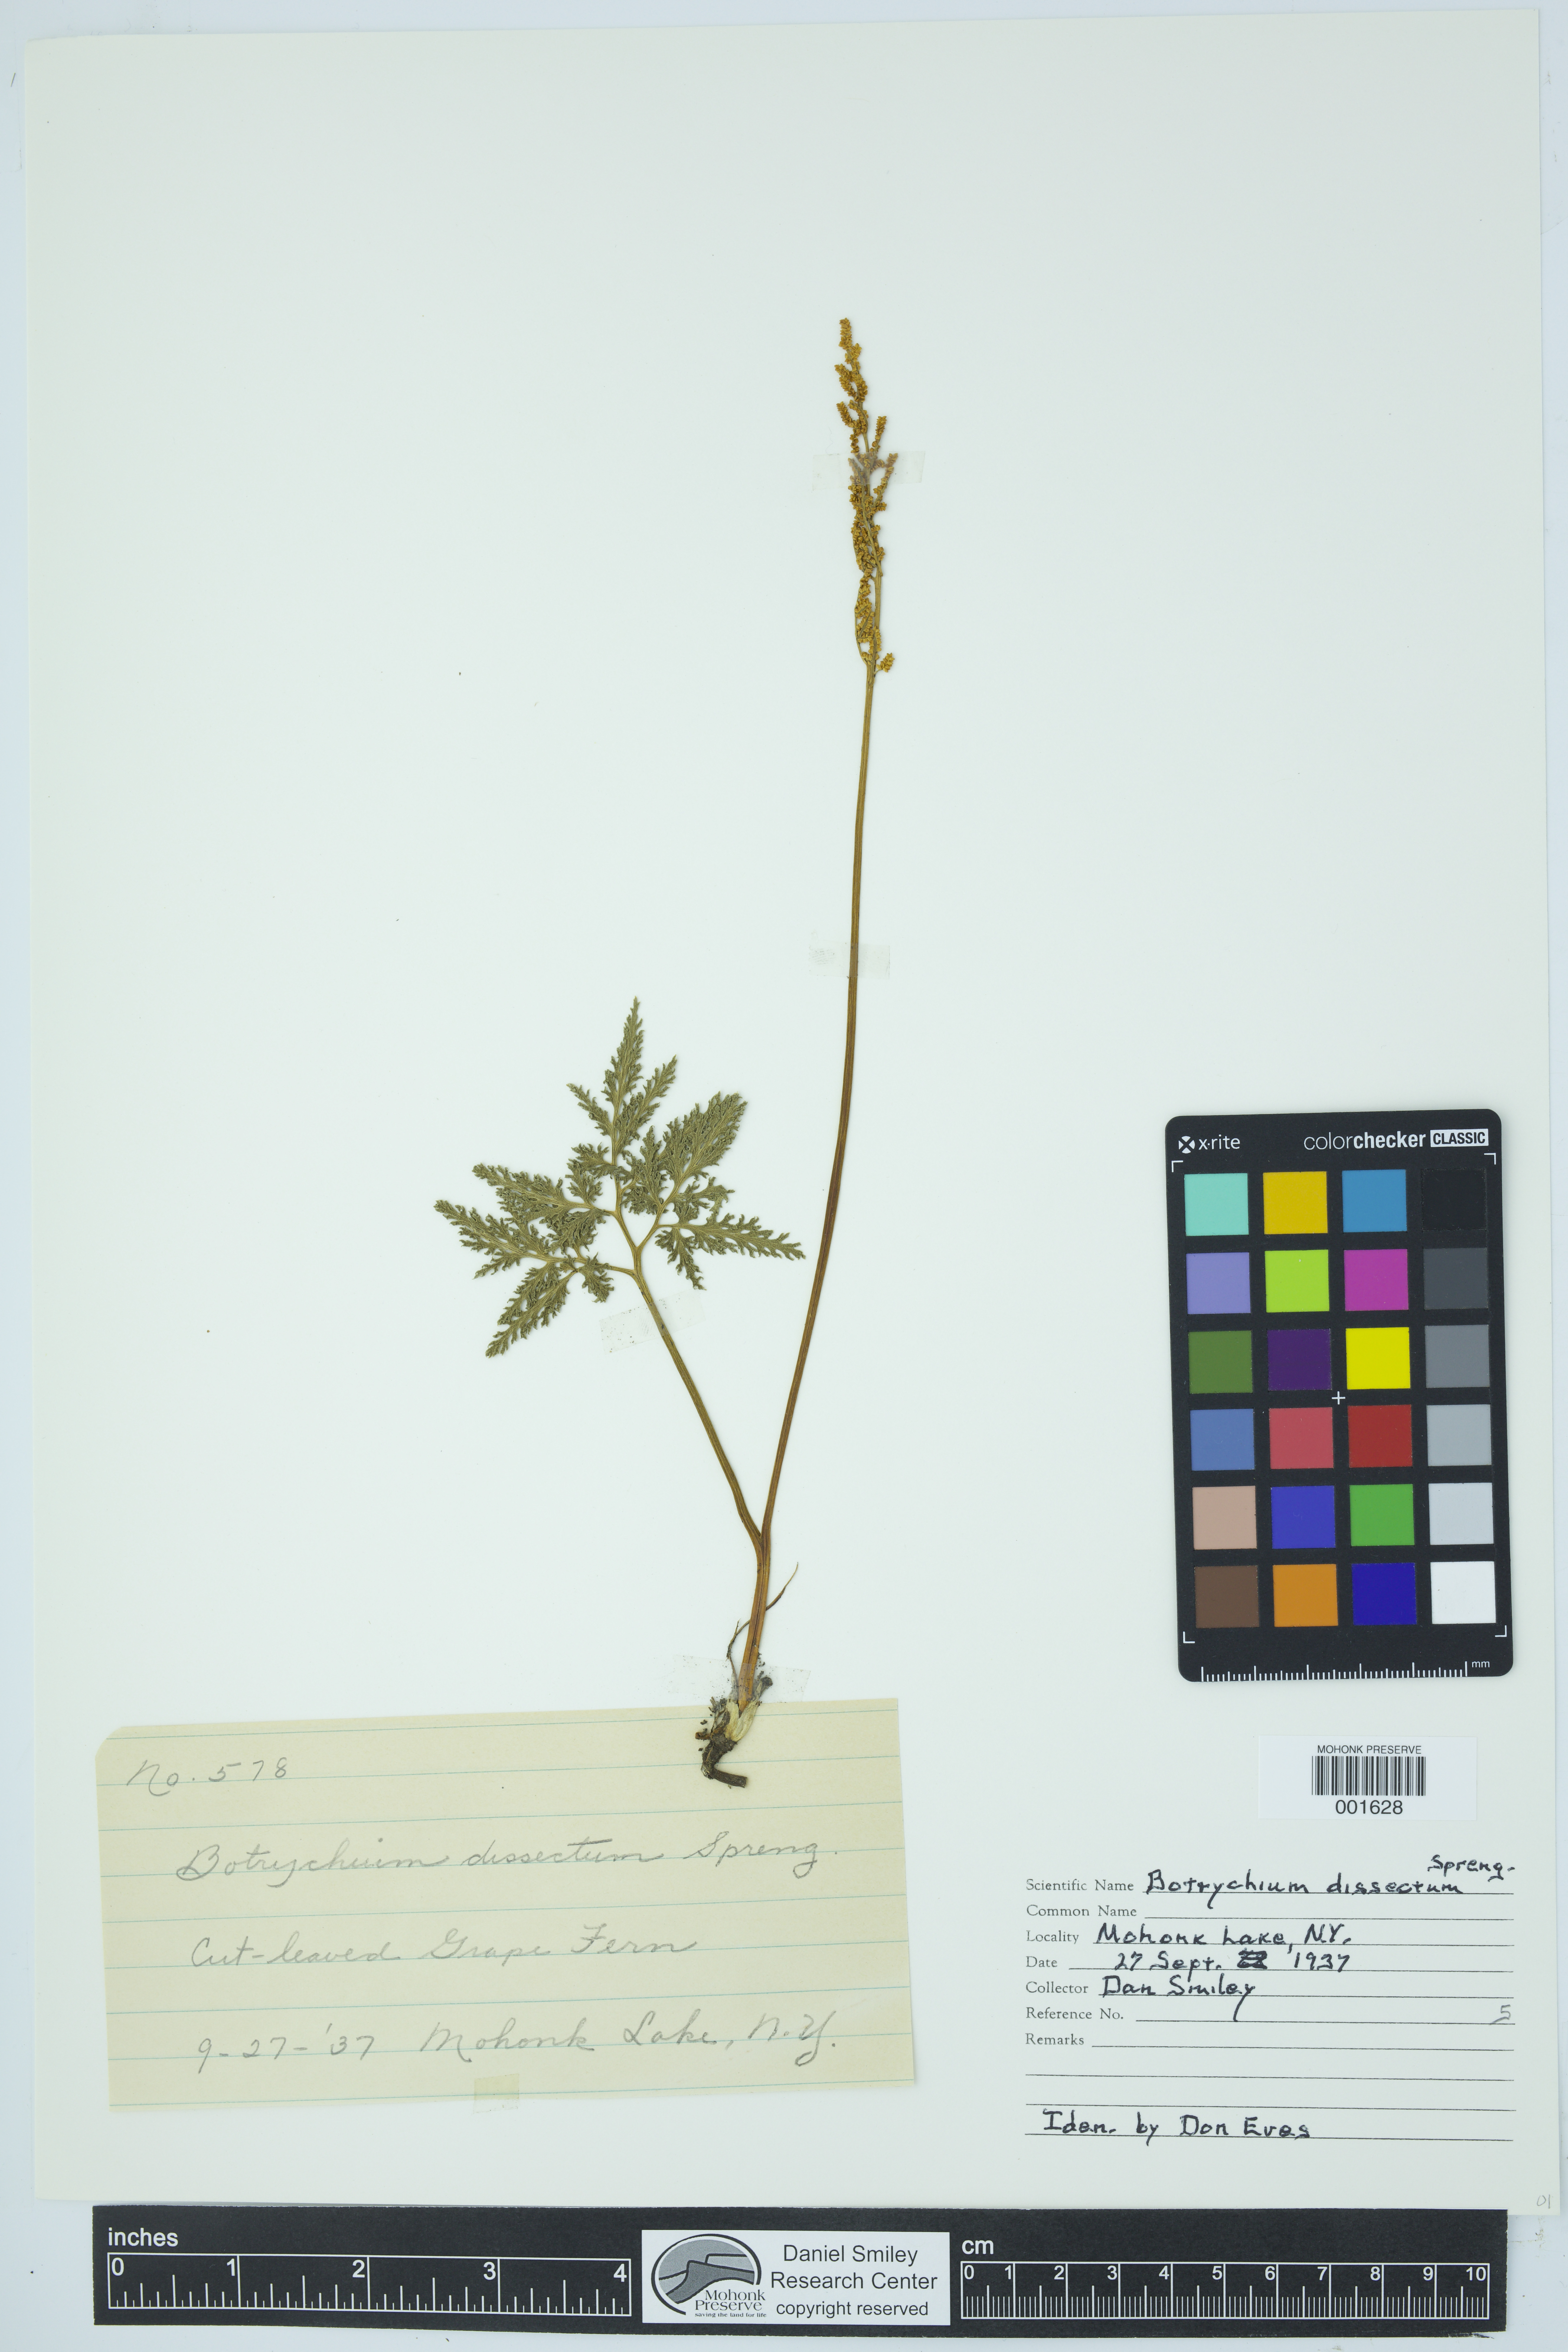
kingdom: Plantae
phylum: Tracheophyta
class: Polypodiopsida
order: Ophioglossales
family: Ophioglossaceae
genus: Sceptridium
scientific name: Sceptridium dissectum
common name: Cut-leaved grapefern
